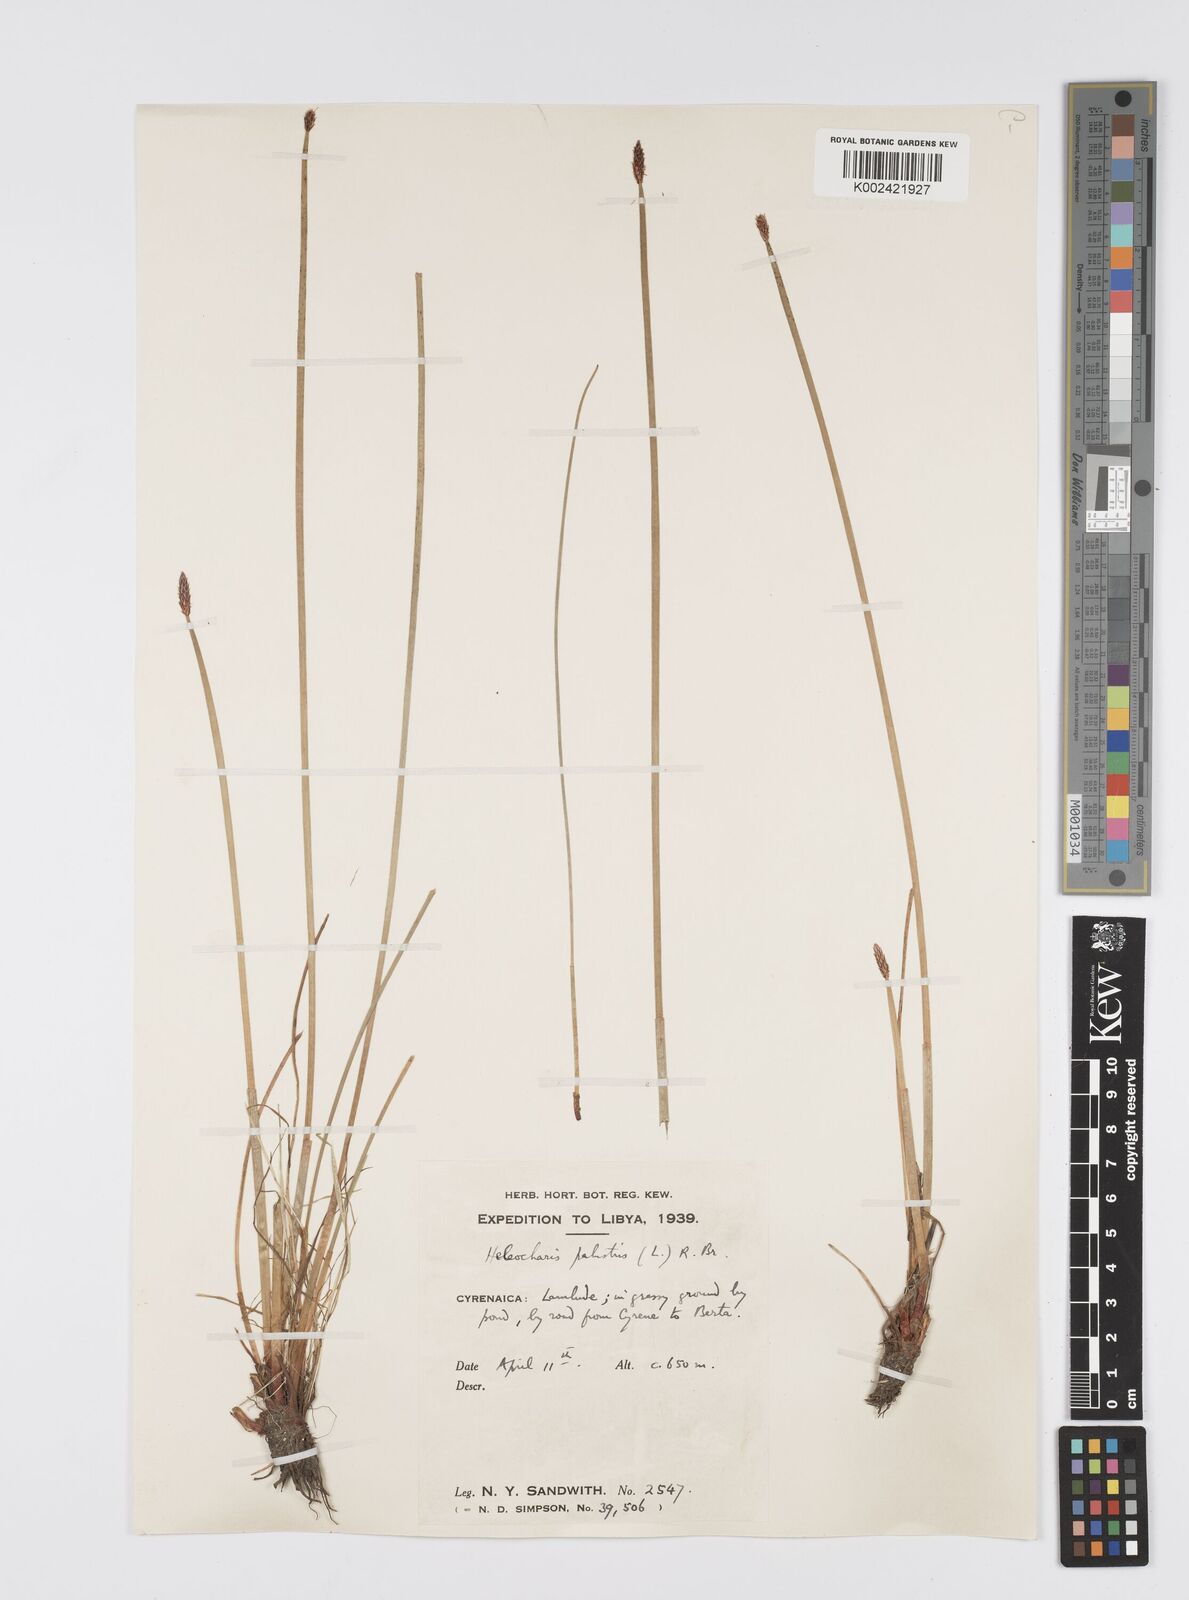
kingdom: Plantae
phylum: Tracheophyta
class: Liliopsida
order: Poales
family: Cyperaceae
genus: Eleocharis
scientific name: Eleocharis palustris
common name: Common spike-rush
